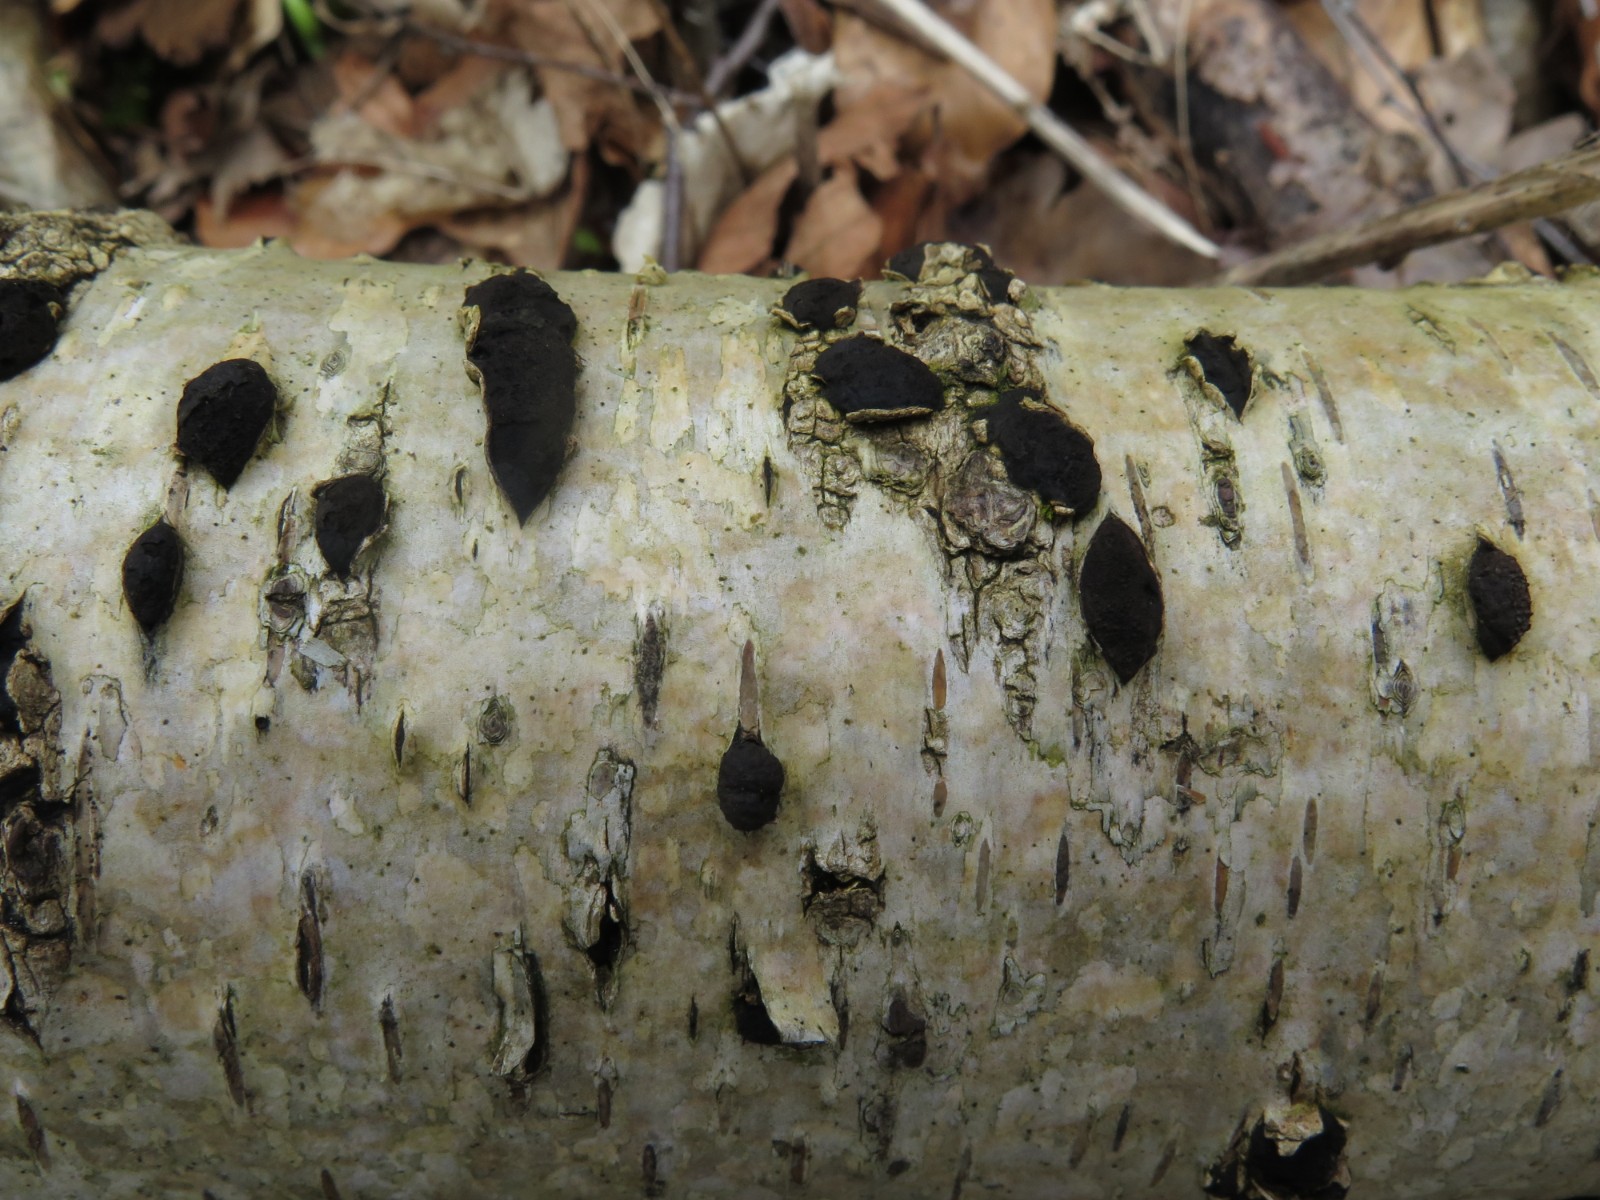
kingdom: Fungi
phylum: Ascomycota
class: Sordariomycetes
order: Xylariales
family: Diatrypaceae
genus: Diatrypella
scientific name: Diatrypella favacea
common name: Birch blackhead
